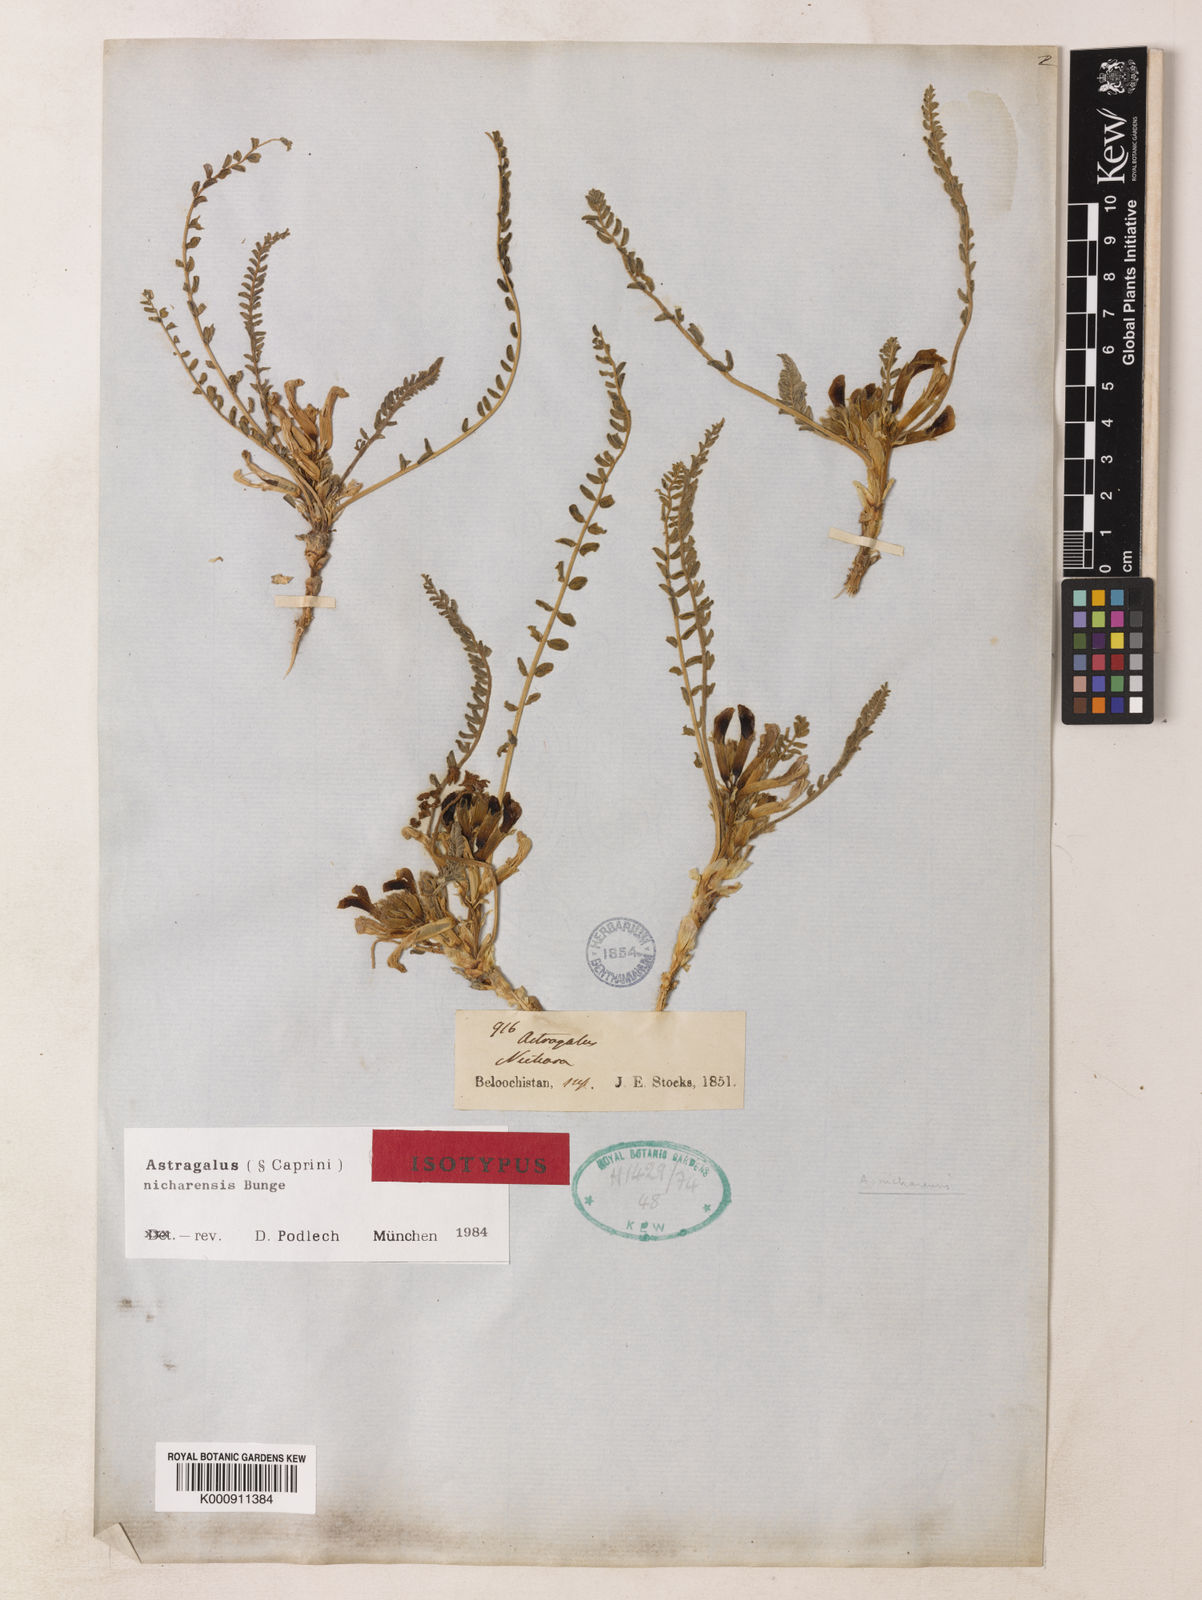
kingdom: Plantae
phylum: Tracheophyta
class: Magnoliopsida
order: Fabales
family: Fabaceae
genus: Astragalus
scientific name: Astragalus nicharensis
